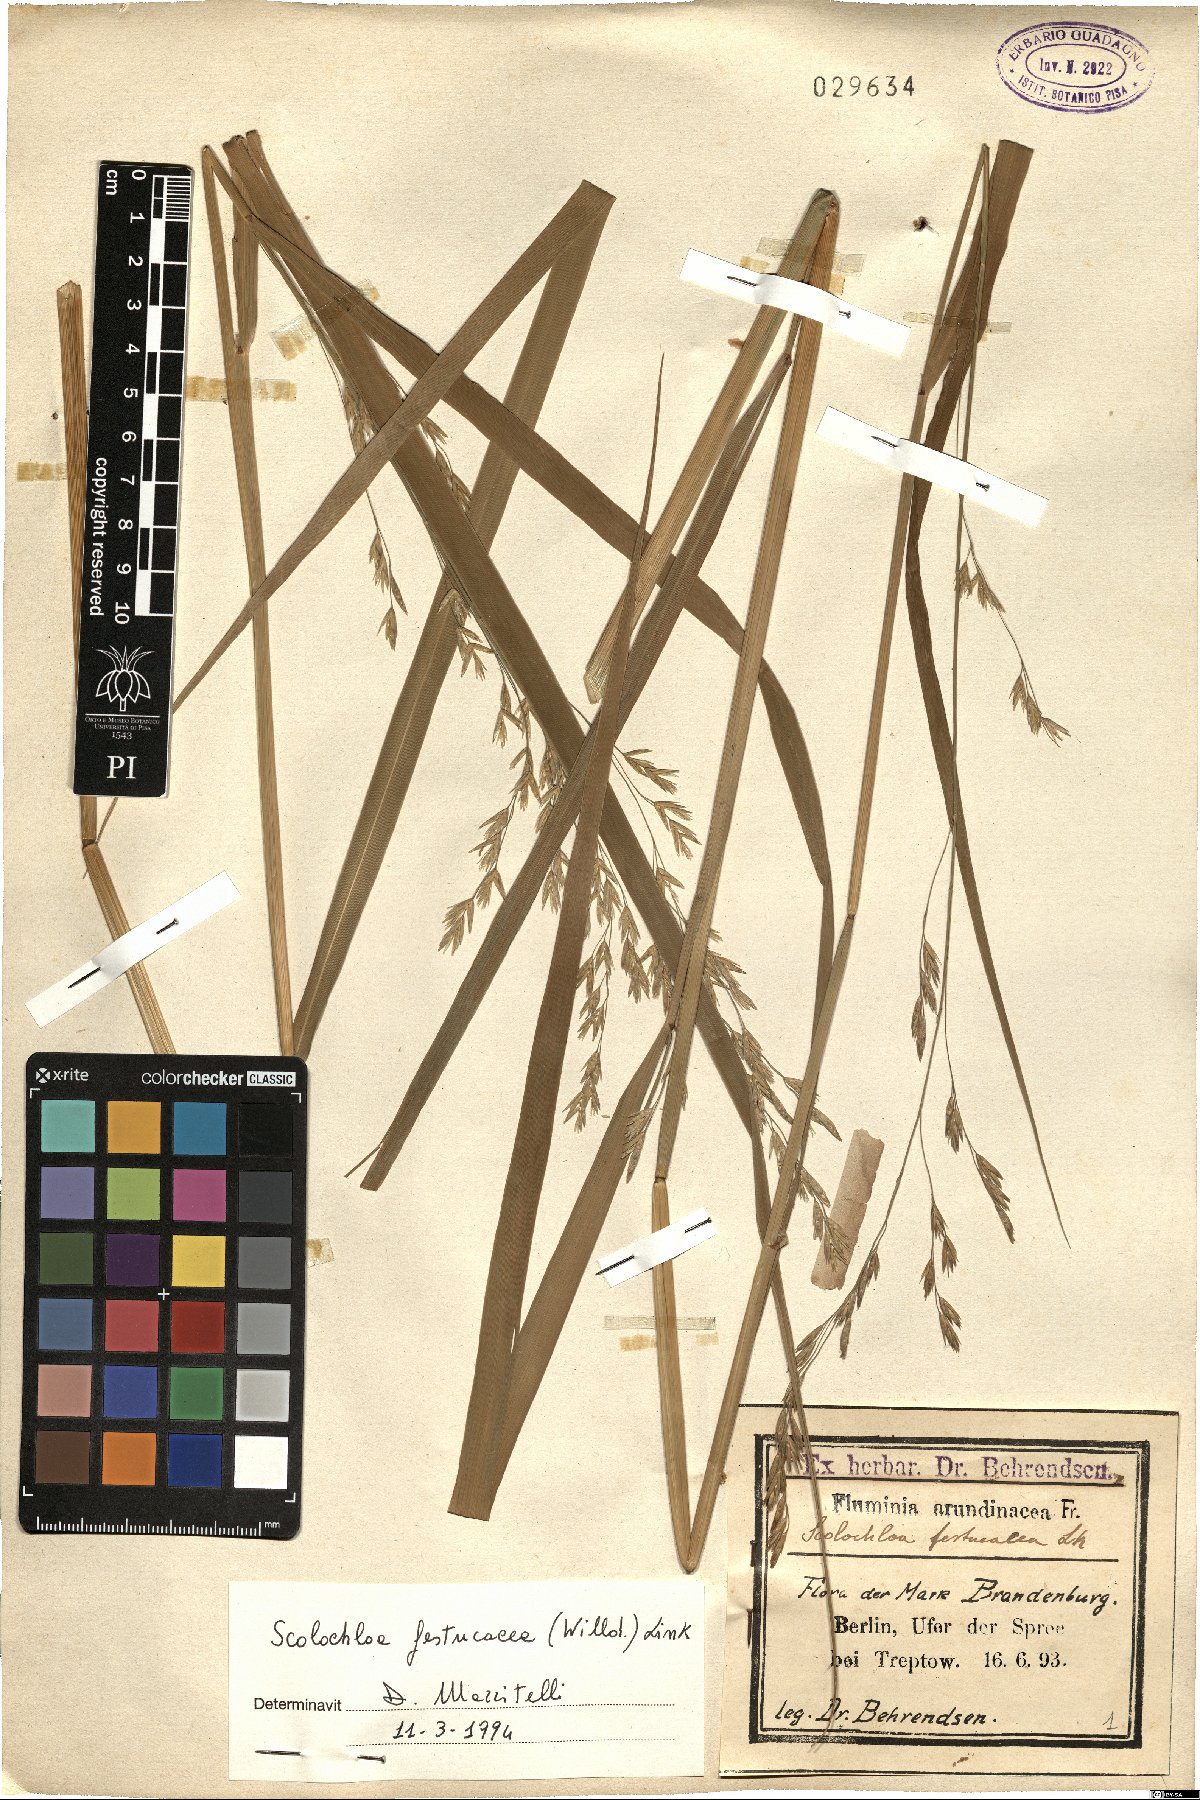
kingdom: Plantae
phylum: Tracheophyta
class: Liliopsida
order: Poales
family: Poaceae
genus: Scolochloa
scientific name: Scolochloa festucacea
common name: Common rivergrass
